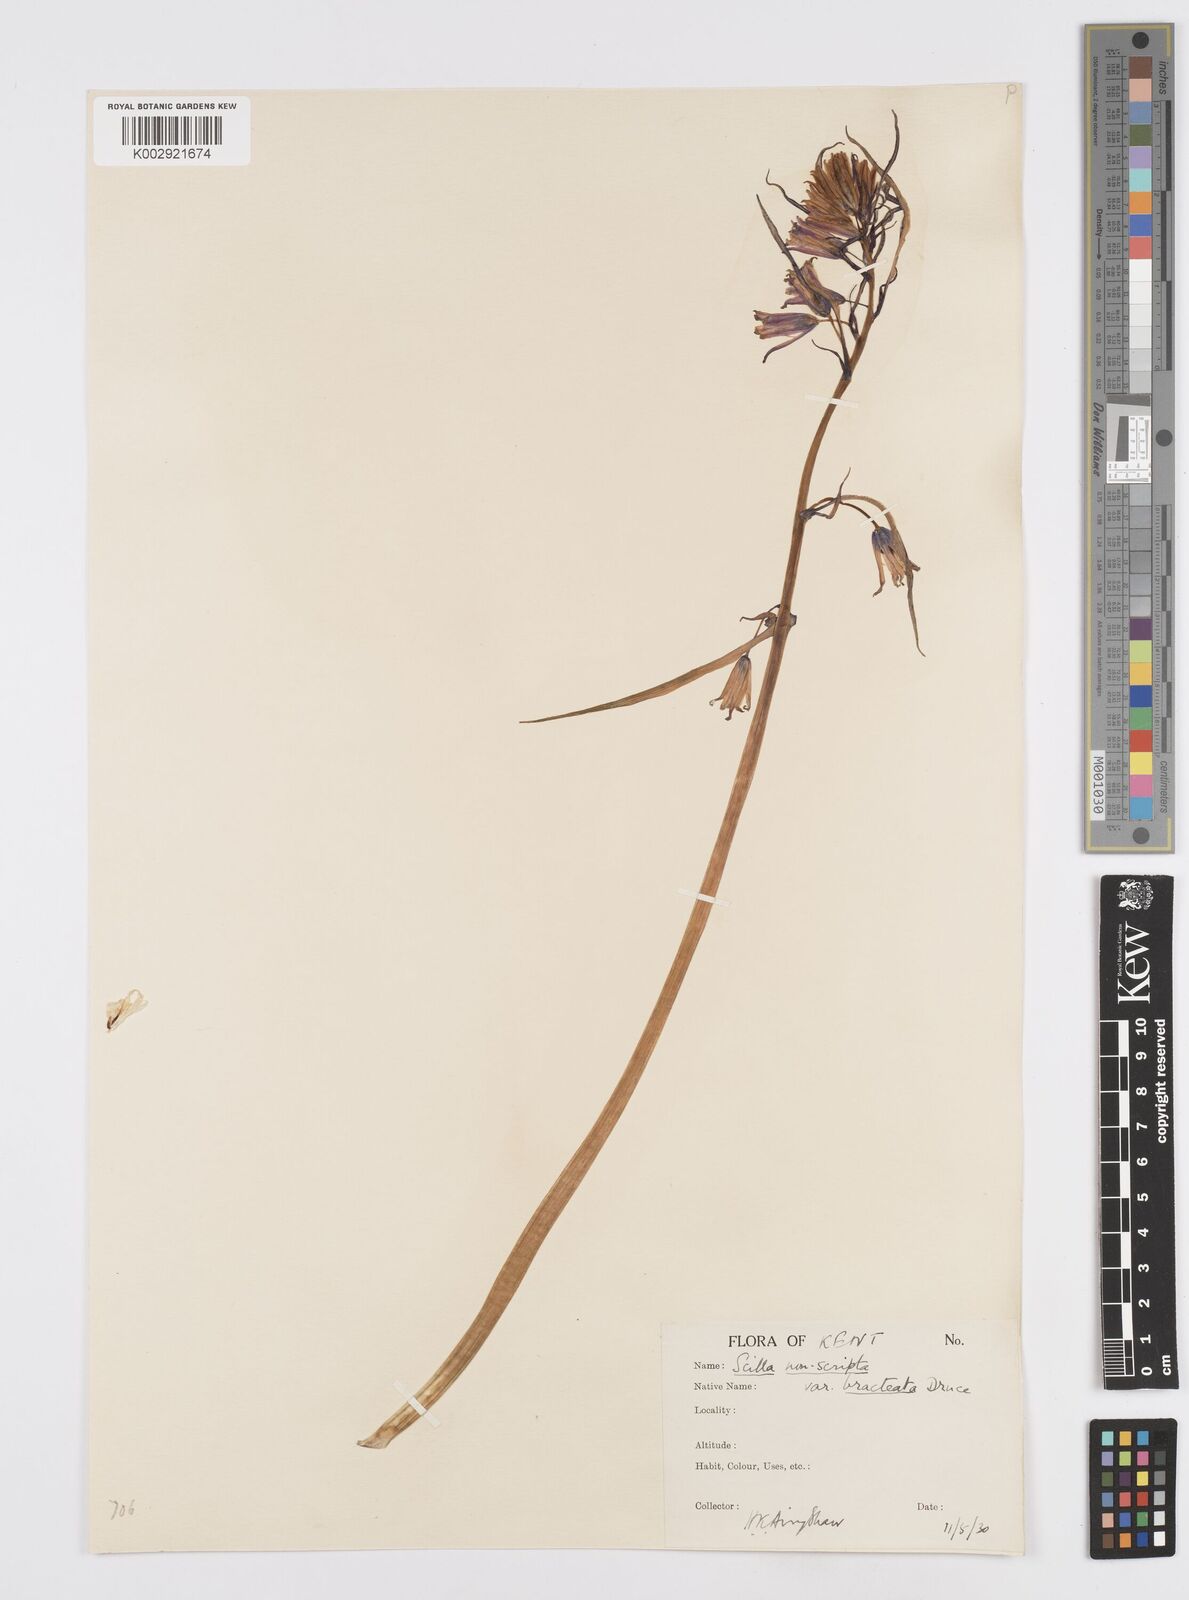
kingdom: Plantae
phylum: Tracheophyta
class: Liliopsida
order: Asparagales
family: Asparagaceae
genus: Hyacinthoides
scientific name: Hyacinthoides
